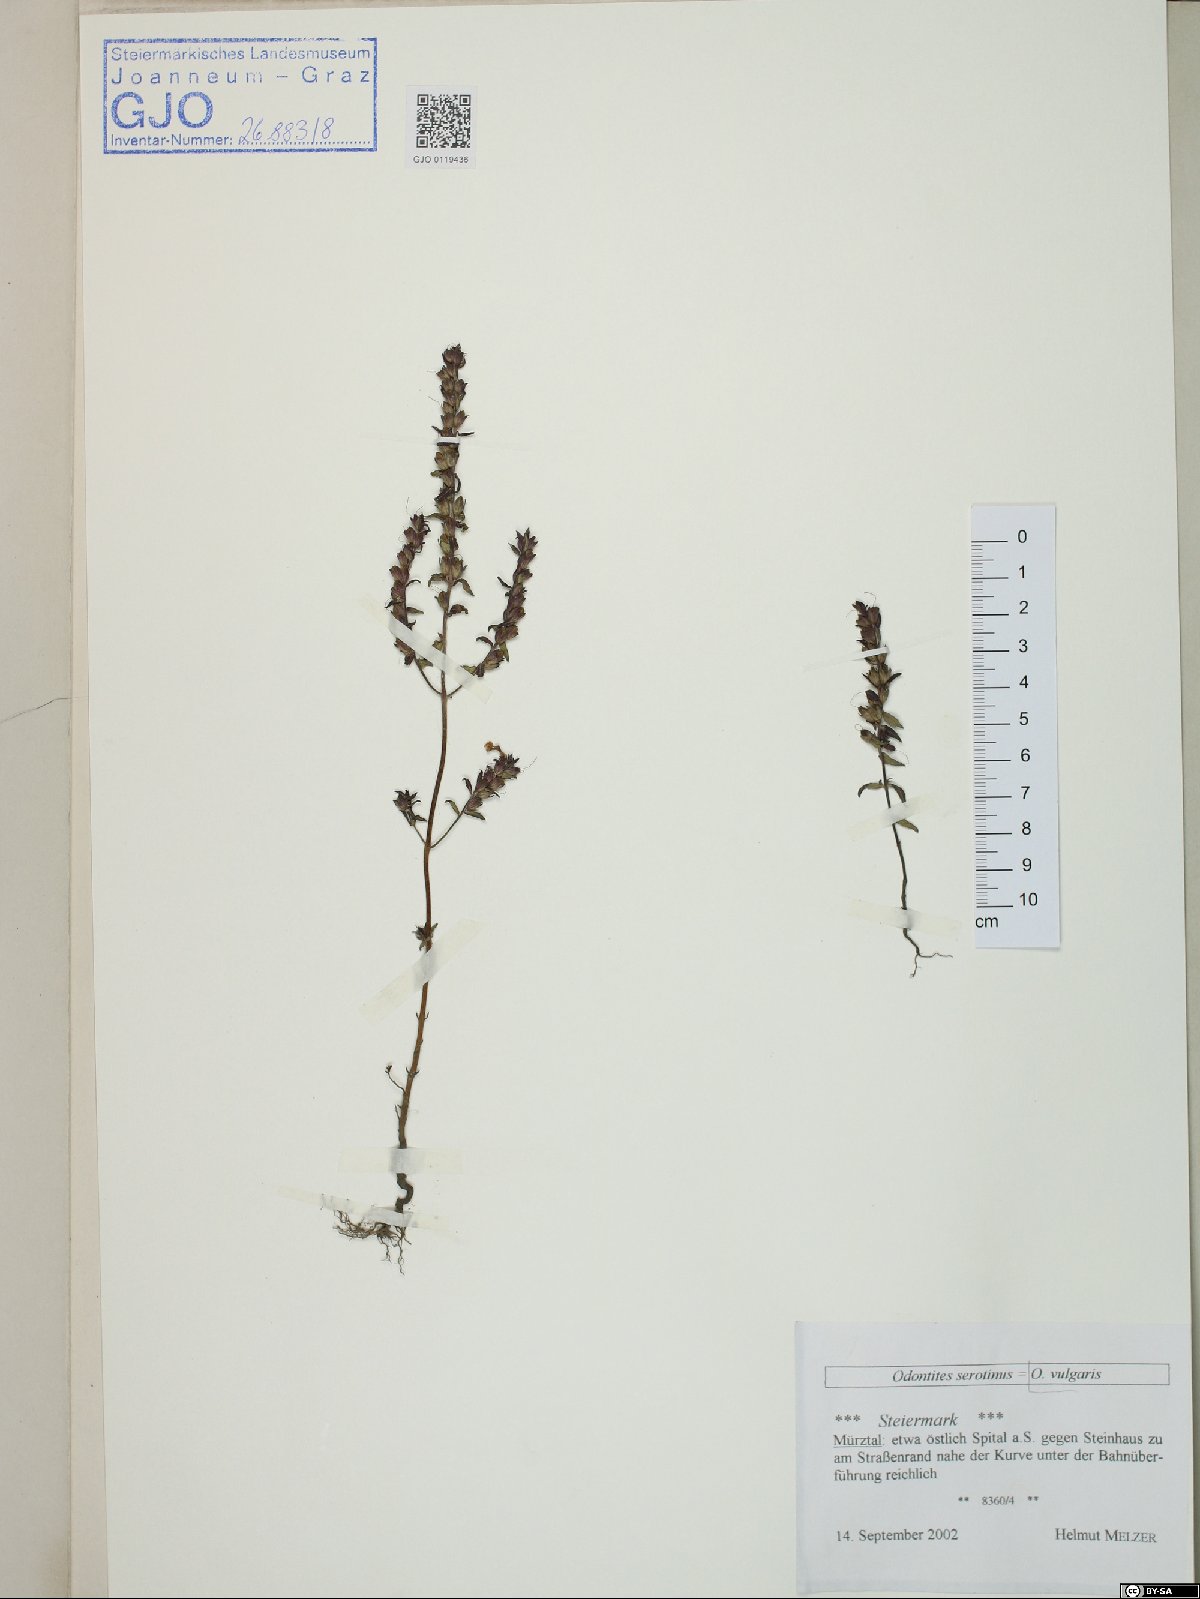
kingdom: Plantae
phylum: Tracheophyta
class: Magnoliopsida
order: Lamiales
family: Orobanchaceae
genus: Odontites
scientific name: Odontites vulgaris
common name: Broomrape
